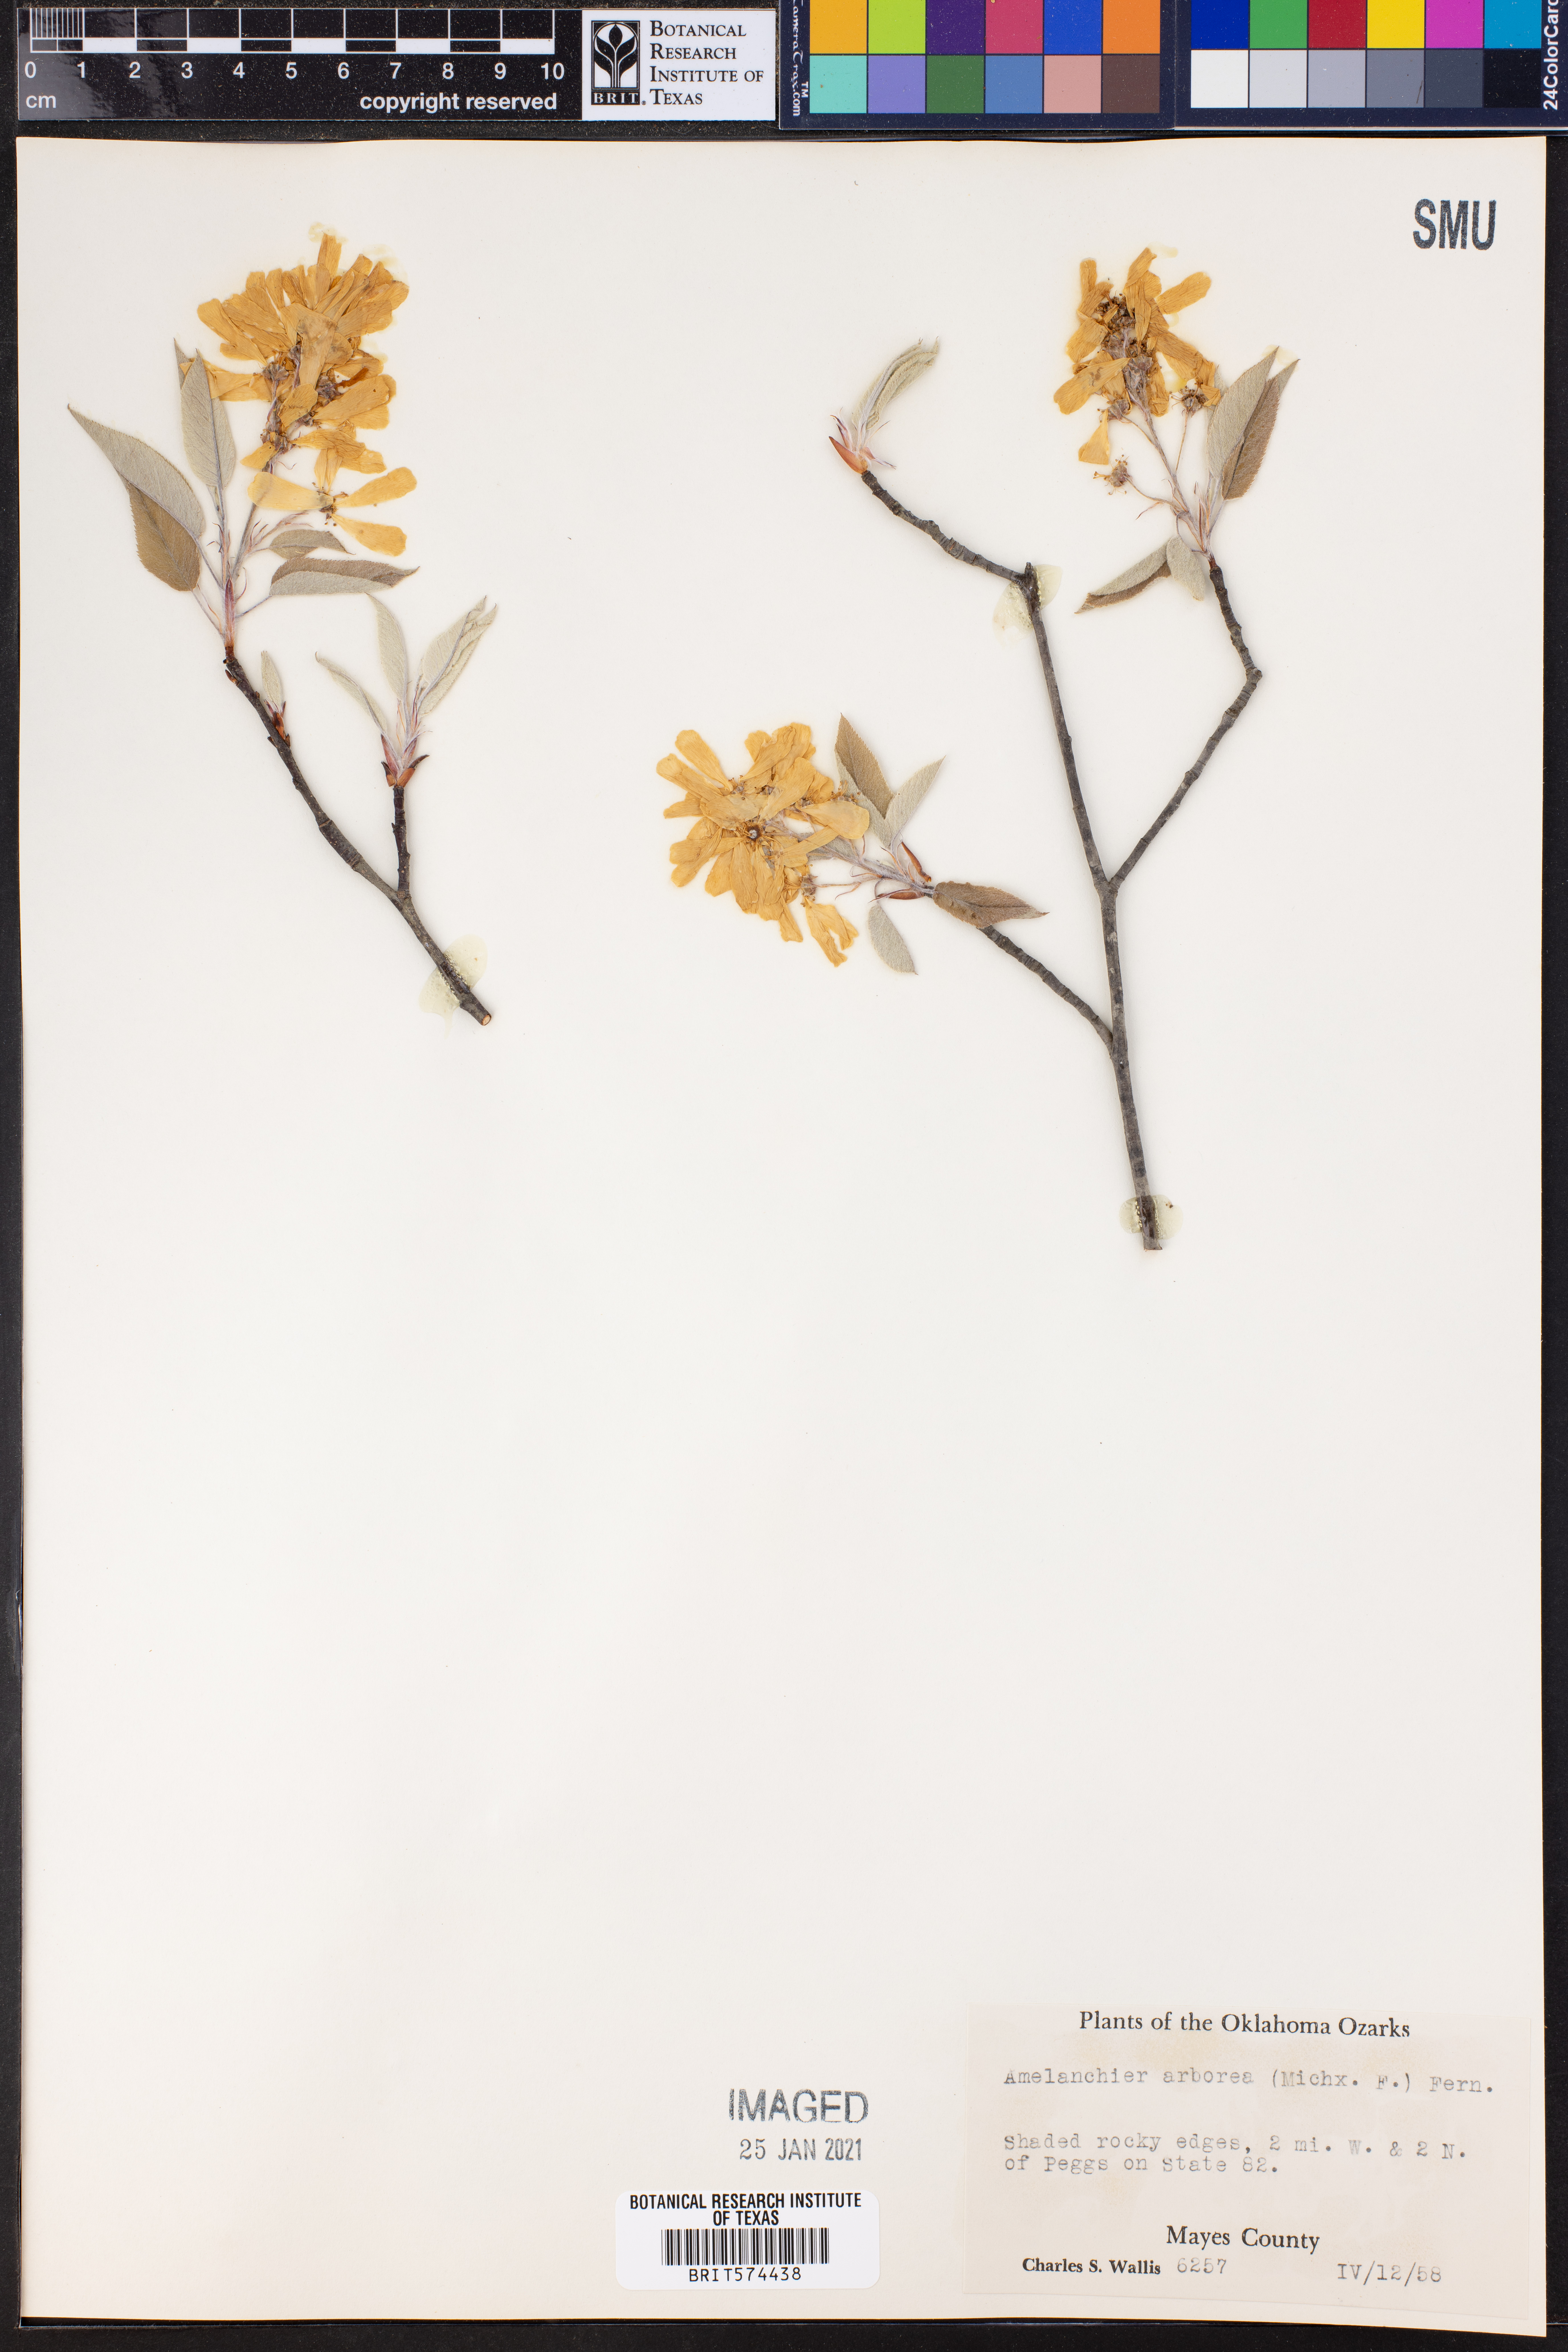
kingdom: Plantae
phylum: Tracheophyta
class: Magnoliopsida
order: Rosales
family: Rosaceae
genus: Amelanchier
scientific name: Amelanchier arborea
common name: Downy serviceberry
